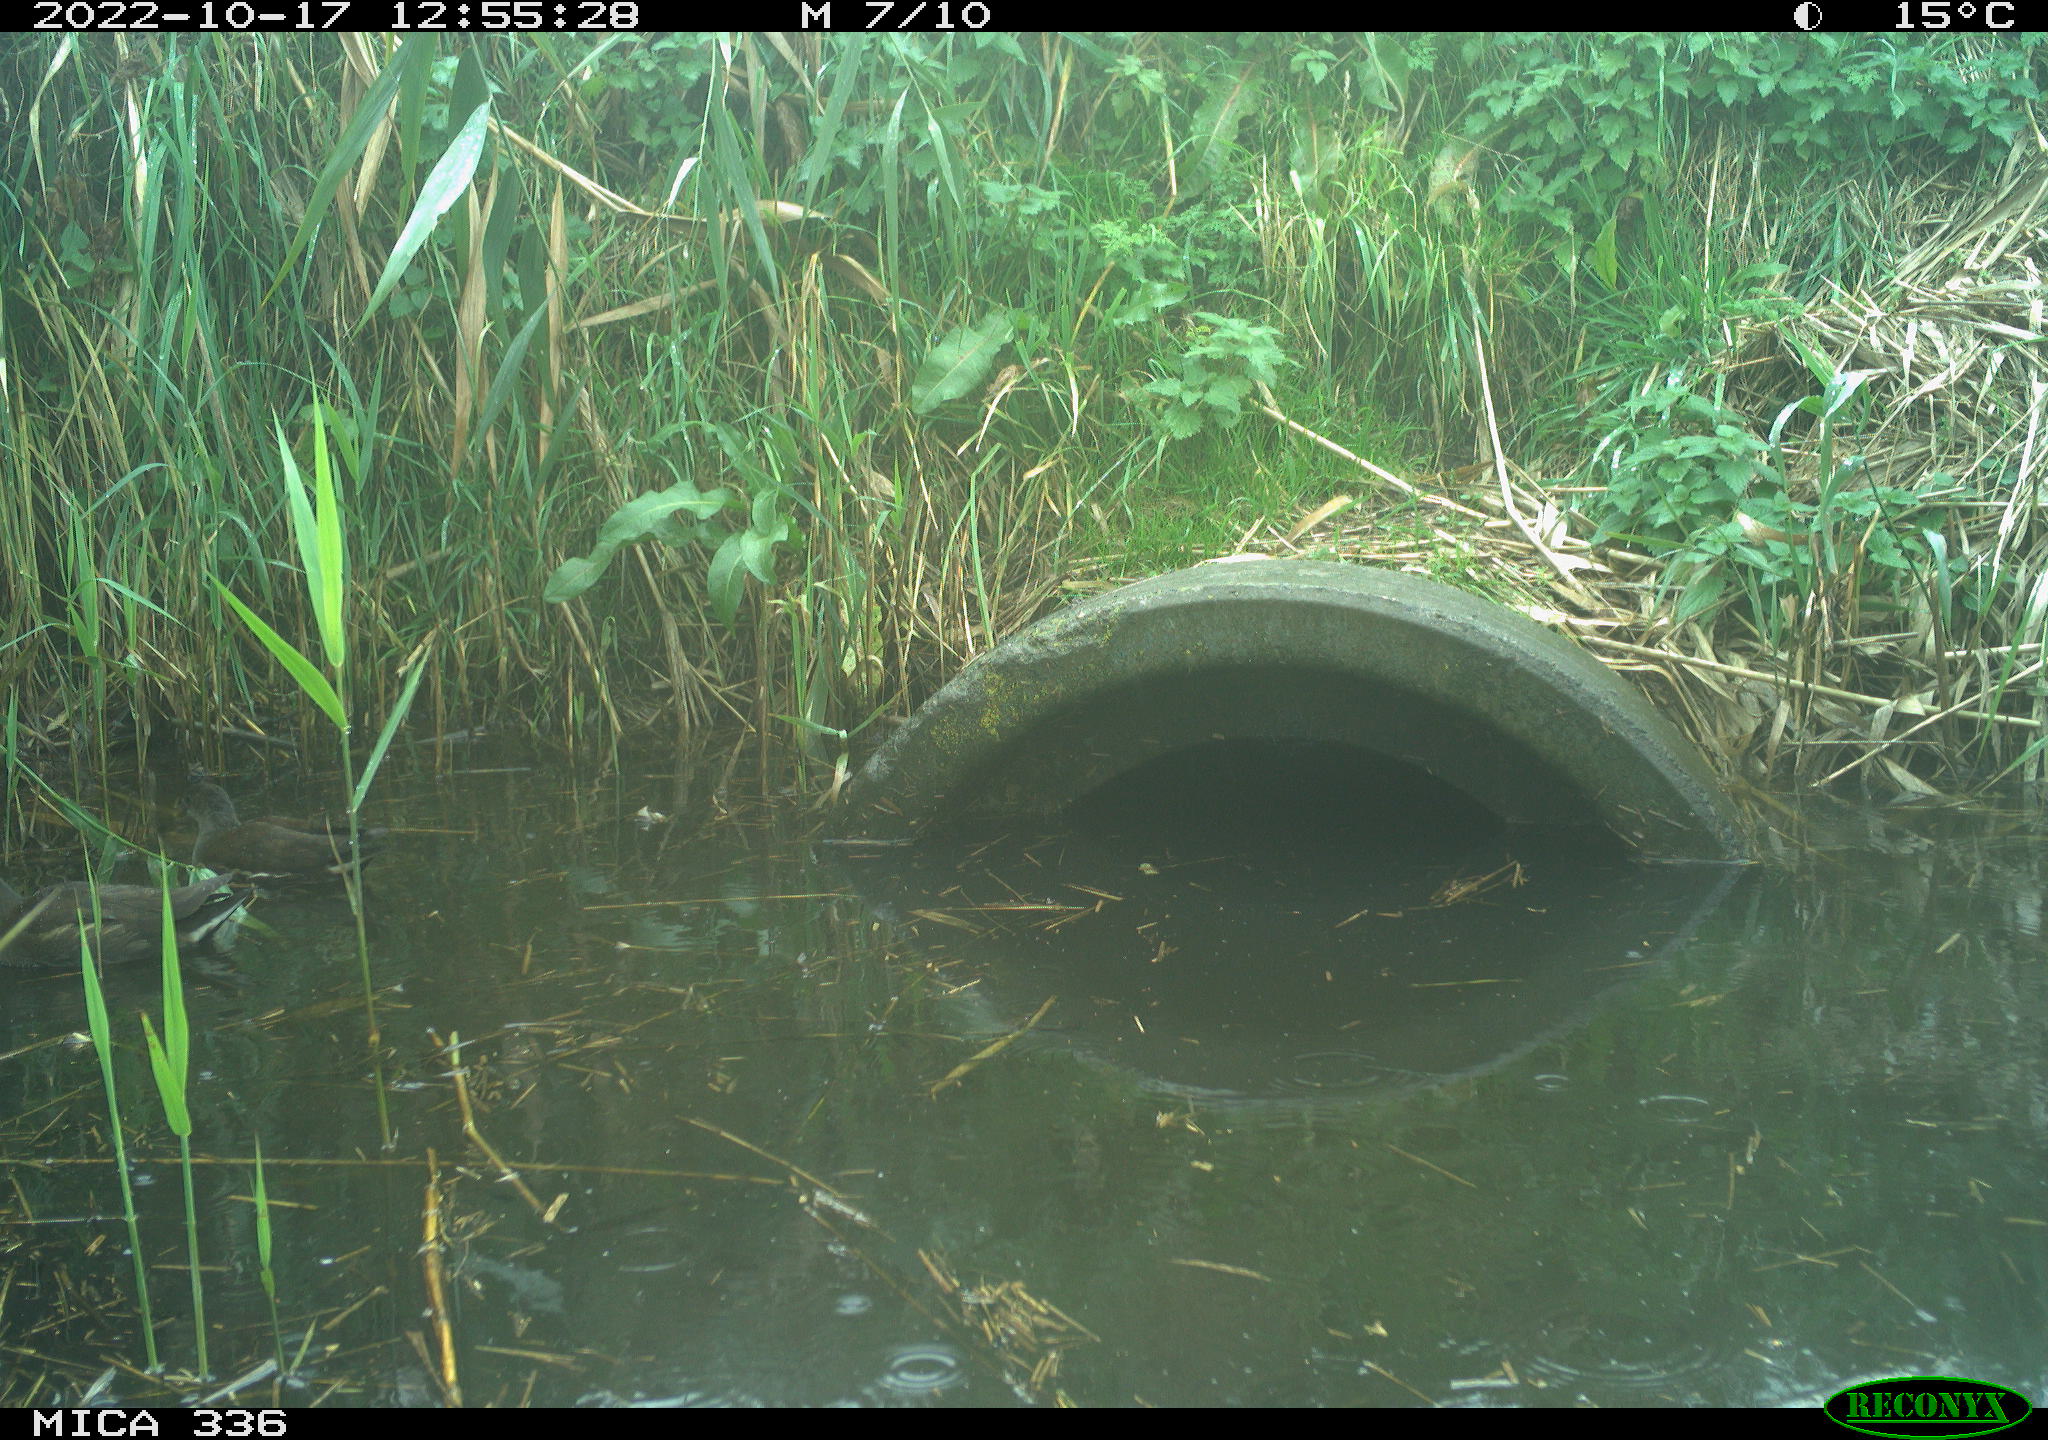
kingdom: Animalia
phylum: Chordata
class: Aves
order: Gruiformes
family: Rallidae
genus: Gallinula
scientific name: Gallinula chloropus
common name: Common moorhen
